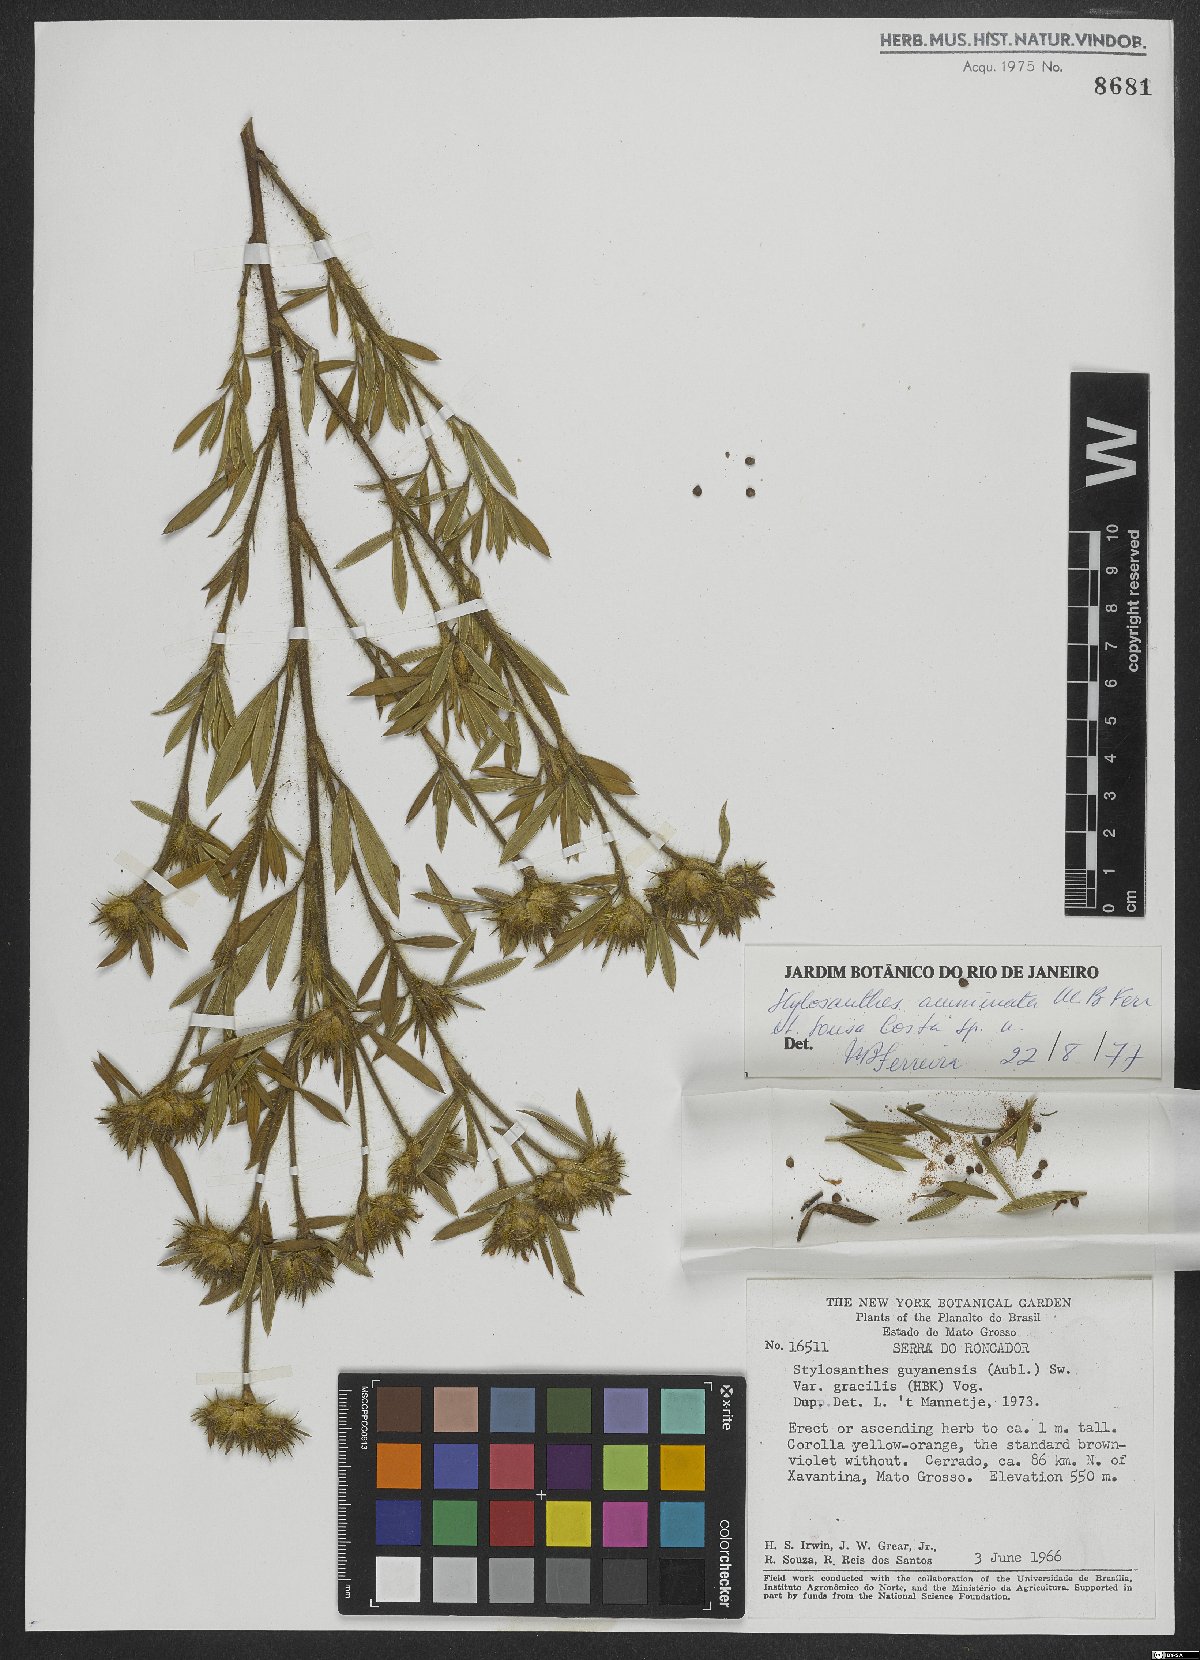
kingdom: Plantae
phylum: Tracheophyta
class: Magnoliopsida
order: Fabales
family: Fabaceae
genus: Stylosanthes
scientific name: Stylosanthes guianensis
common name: Pencil flower
